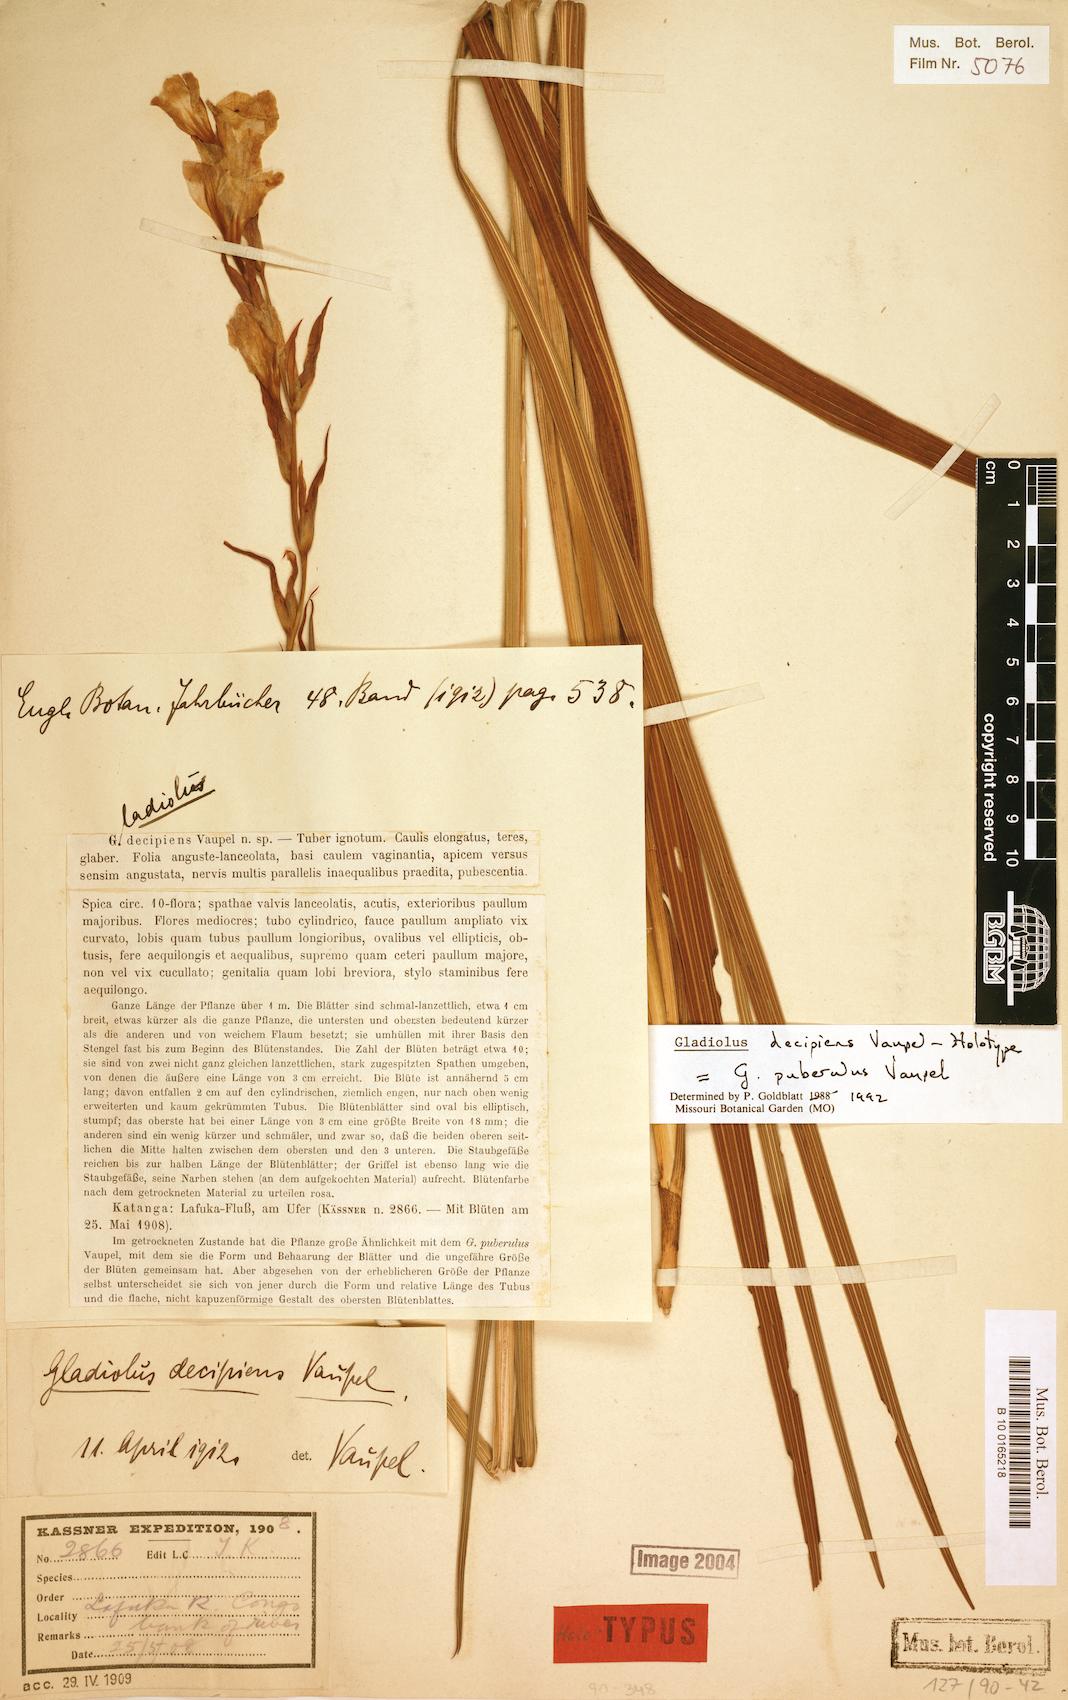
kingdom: Plantae
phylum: Tracheophyta
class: Liliopsida
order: Asparagales
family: Iridaceae
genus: Gladiolus
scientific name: Gladiolus puberulus
